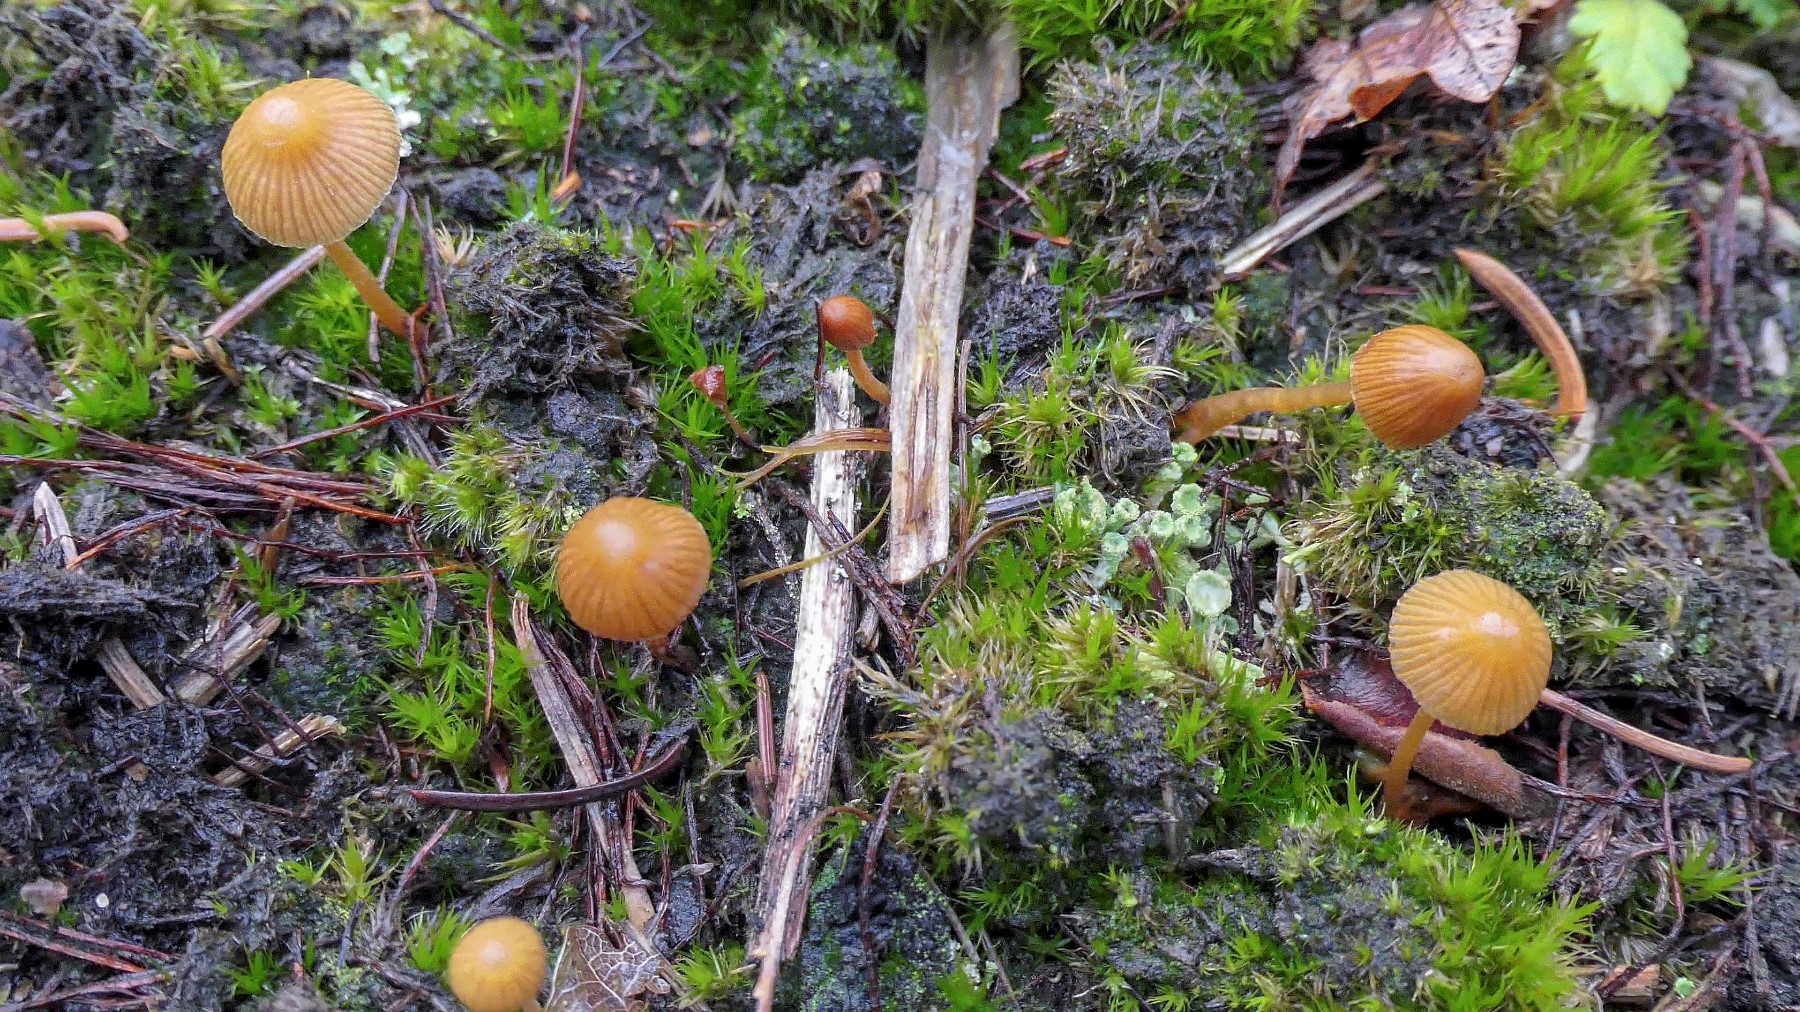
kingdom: Fungi
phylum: Basidiomycota
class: Agaricomycetes
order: Agaricales
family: Hymenogastraceae
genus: Galerina
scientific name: Galerina
